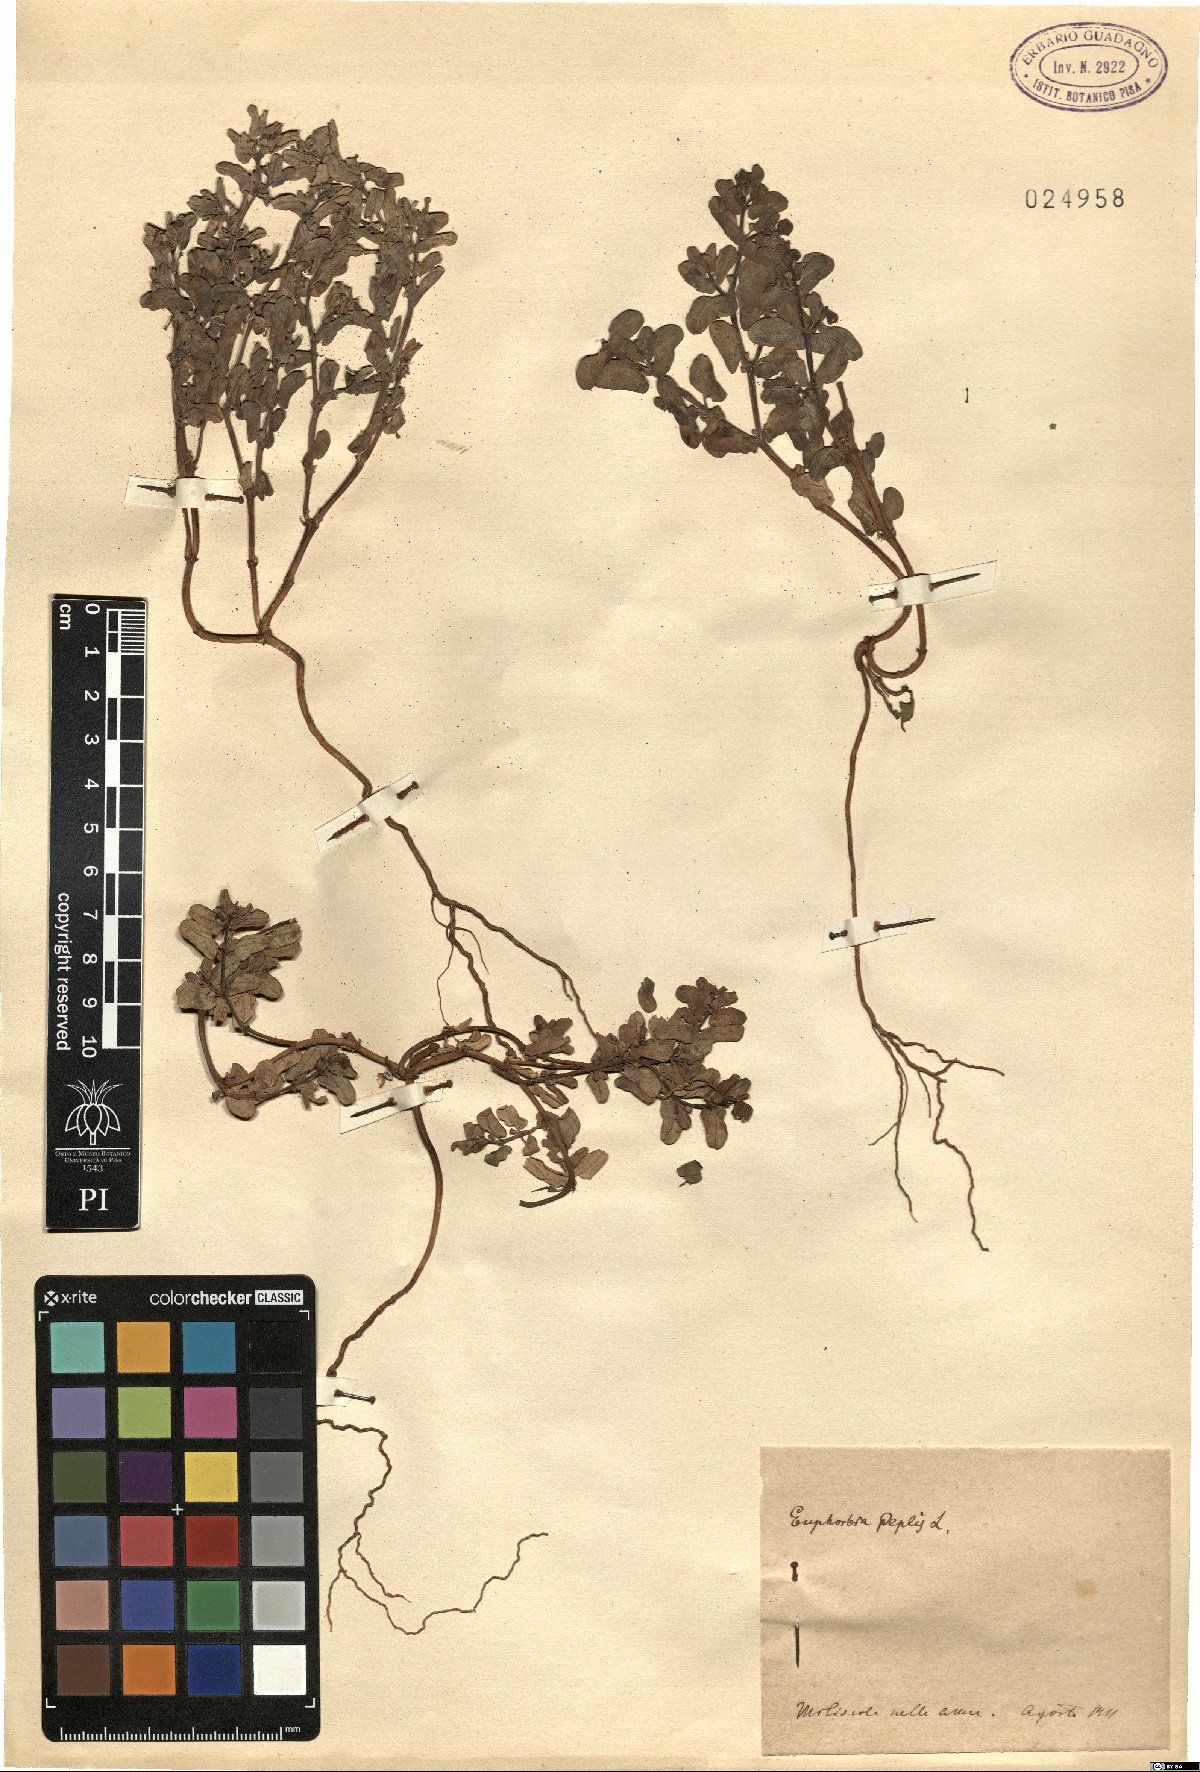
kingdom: Plantae
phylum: Tracheophyta
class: Magnoliopsida
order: Malpighiales
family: Euphorbiaceae
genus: Euphorbia
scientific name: Euphorbia peplis
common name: Purple spurge
